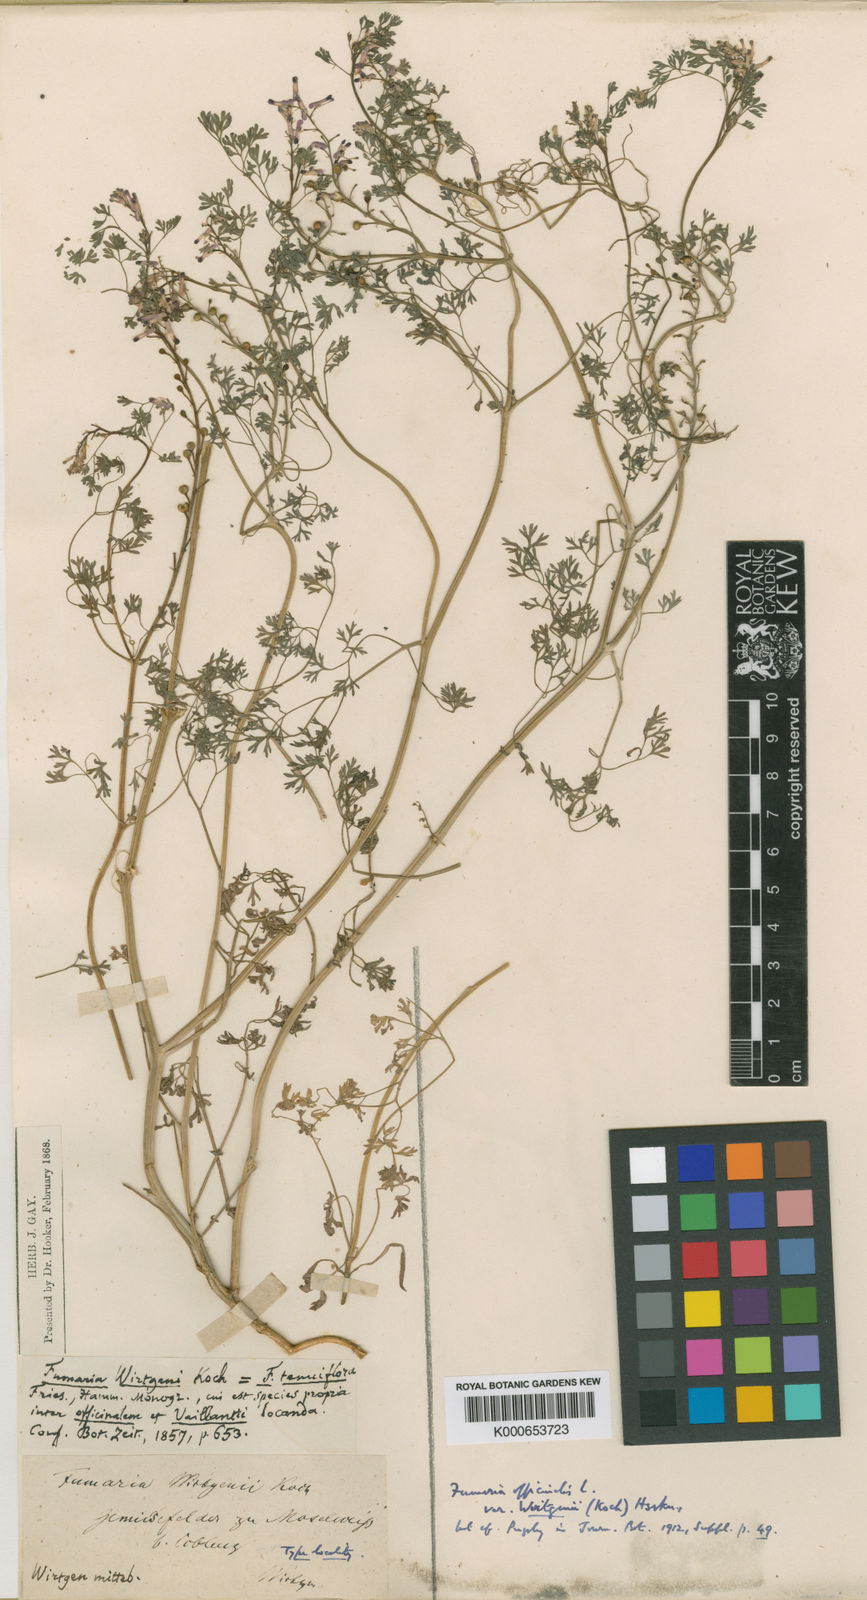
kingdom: Plantae
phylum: Tracheophyta
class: Magnoliopsida
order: Ranunculales
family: Papaveraceae
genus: Fumaria
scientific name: Fumaria wirtgenii
